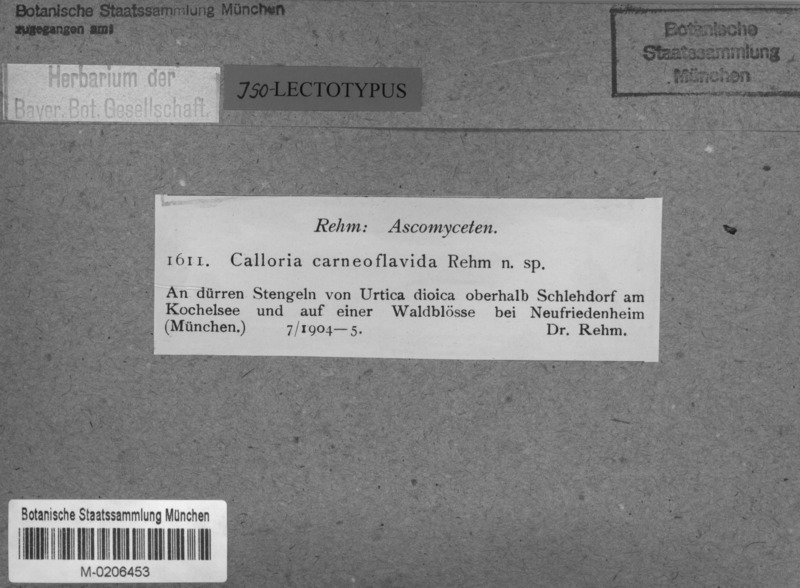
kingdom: Fungi
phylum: Ascomycota
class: Leotiomycetes
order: Helotiales
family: Calloriaceae
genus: Laetinaevia
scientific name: Laetinaevia carneoflavida
